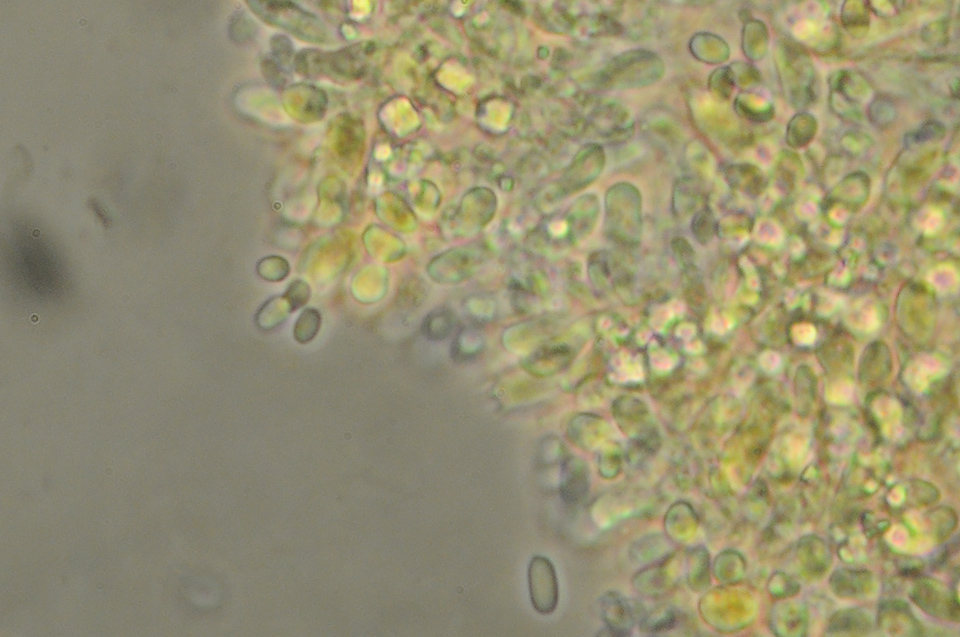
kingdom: Fungi
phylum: Basidiomycota
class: Agaricomycetes
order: Hymenochaetales
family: Rickenellaceae
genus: Bryopistillaria
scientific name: Bryopistillaria sagittiformis
